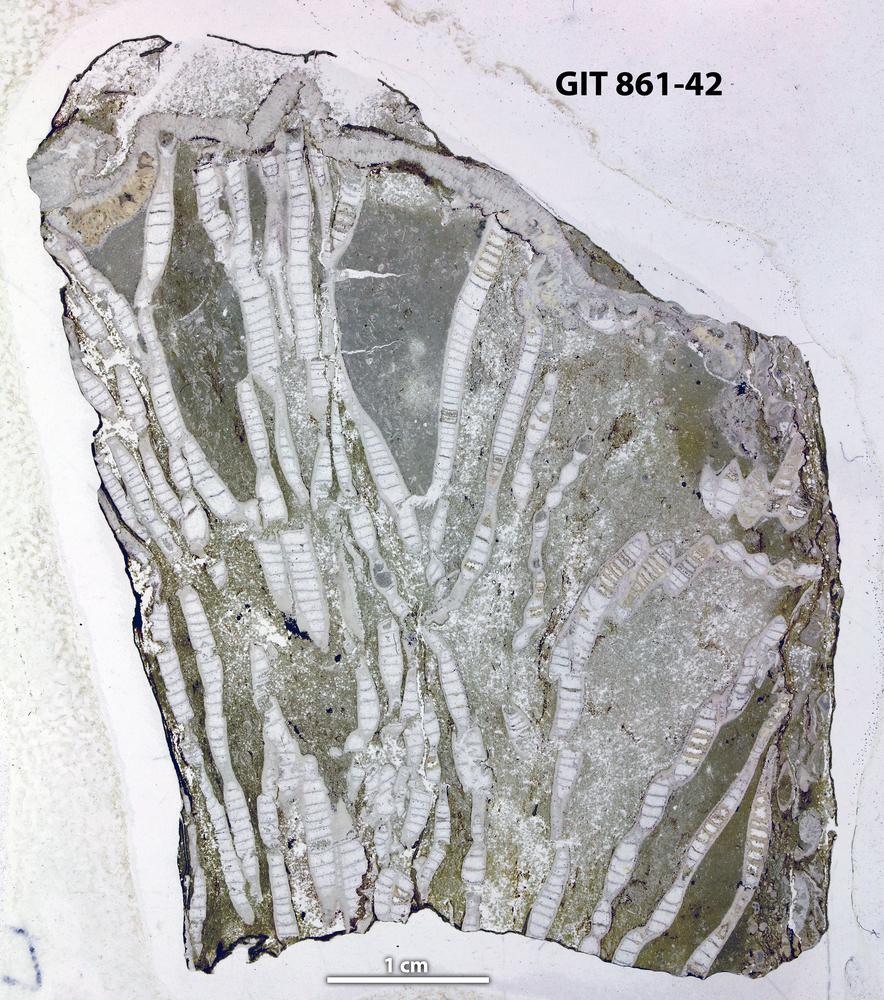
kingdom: Animalia
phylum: Cnidaria
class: Anthozoa
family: Halysitidae
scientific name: Halysitidae
